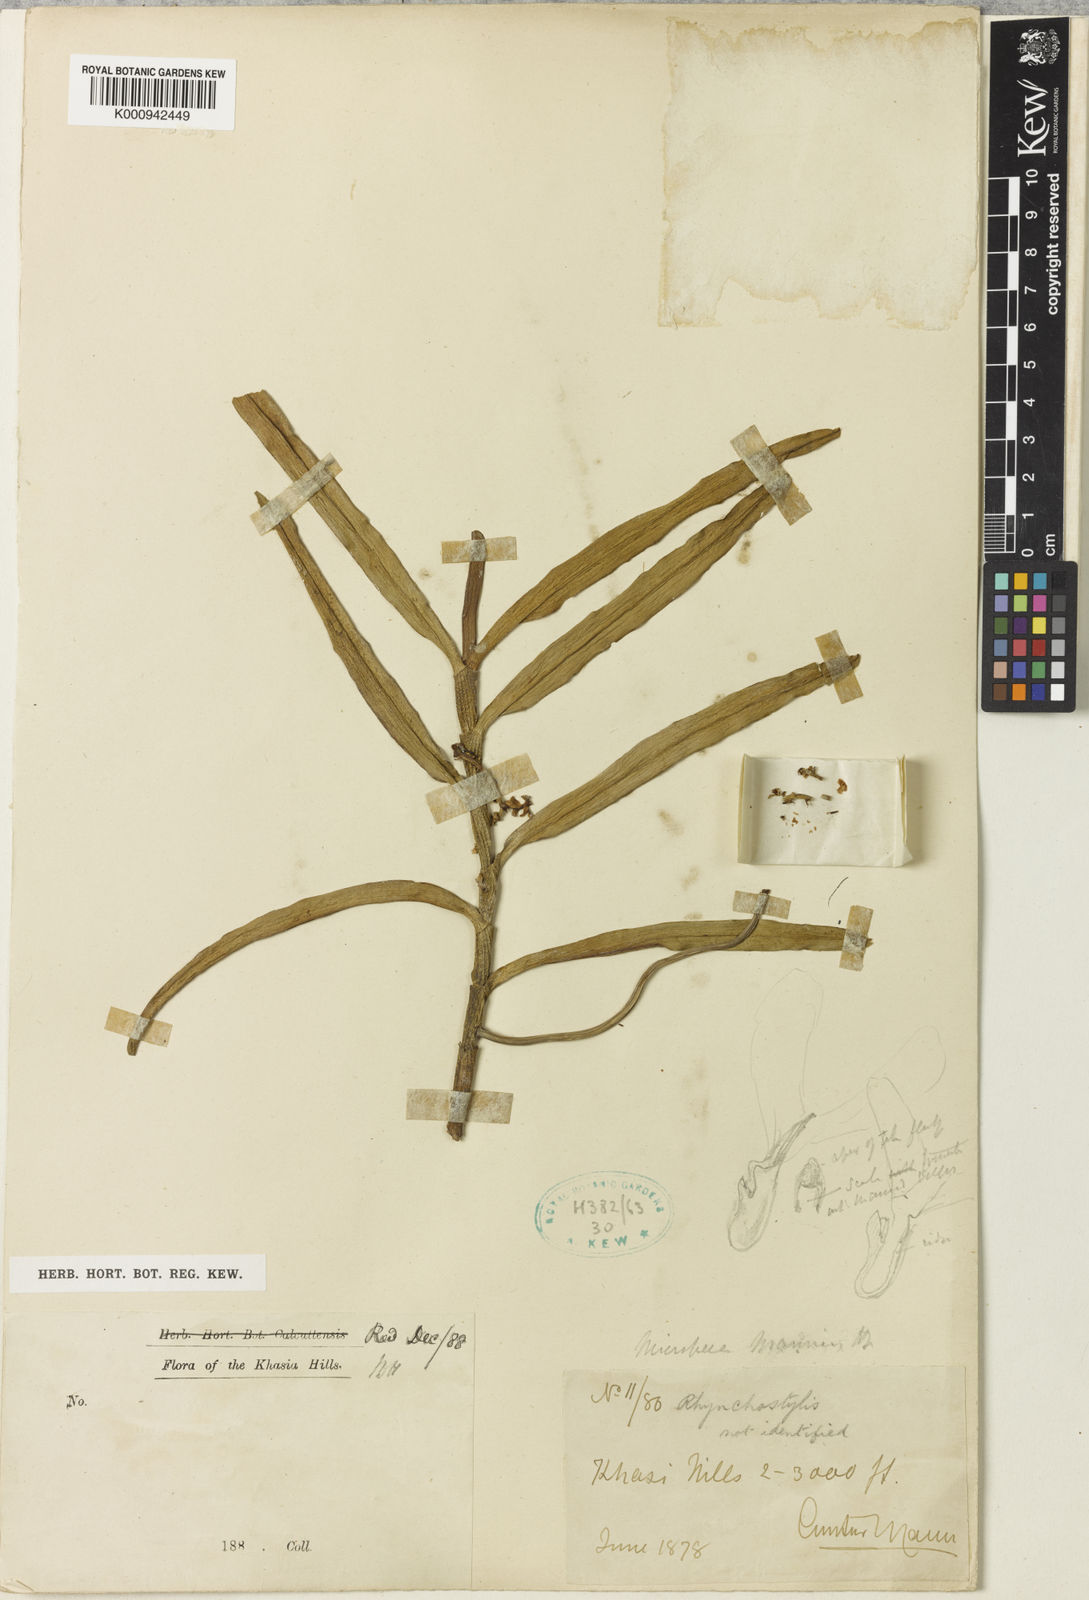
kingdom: Plantae
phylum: Tracheophyta
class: Liliopsida
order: Asparagales
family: Orchidaceae
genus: Micropera
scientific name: Micropera mannii
